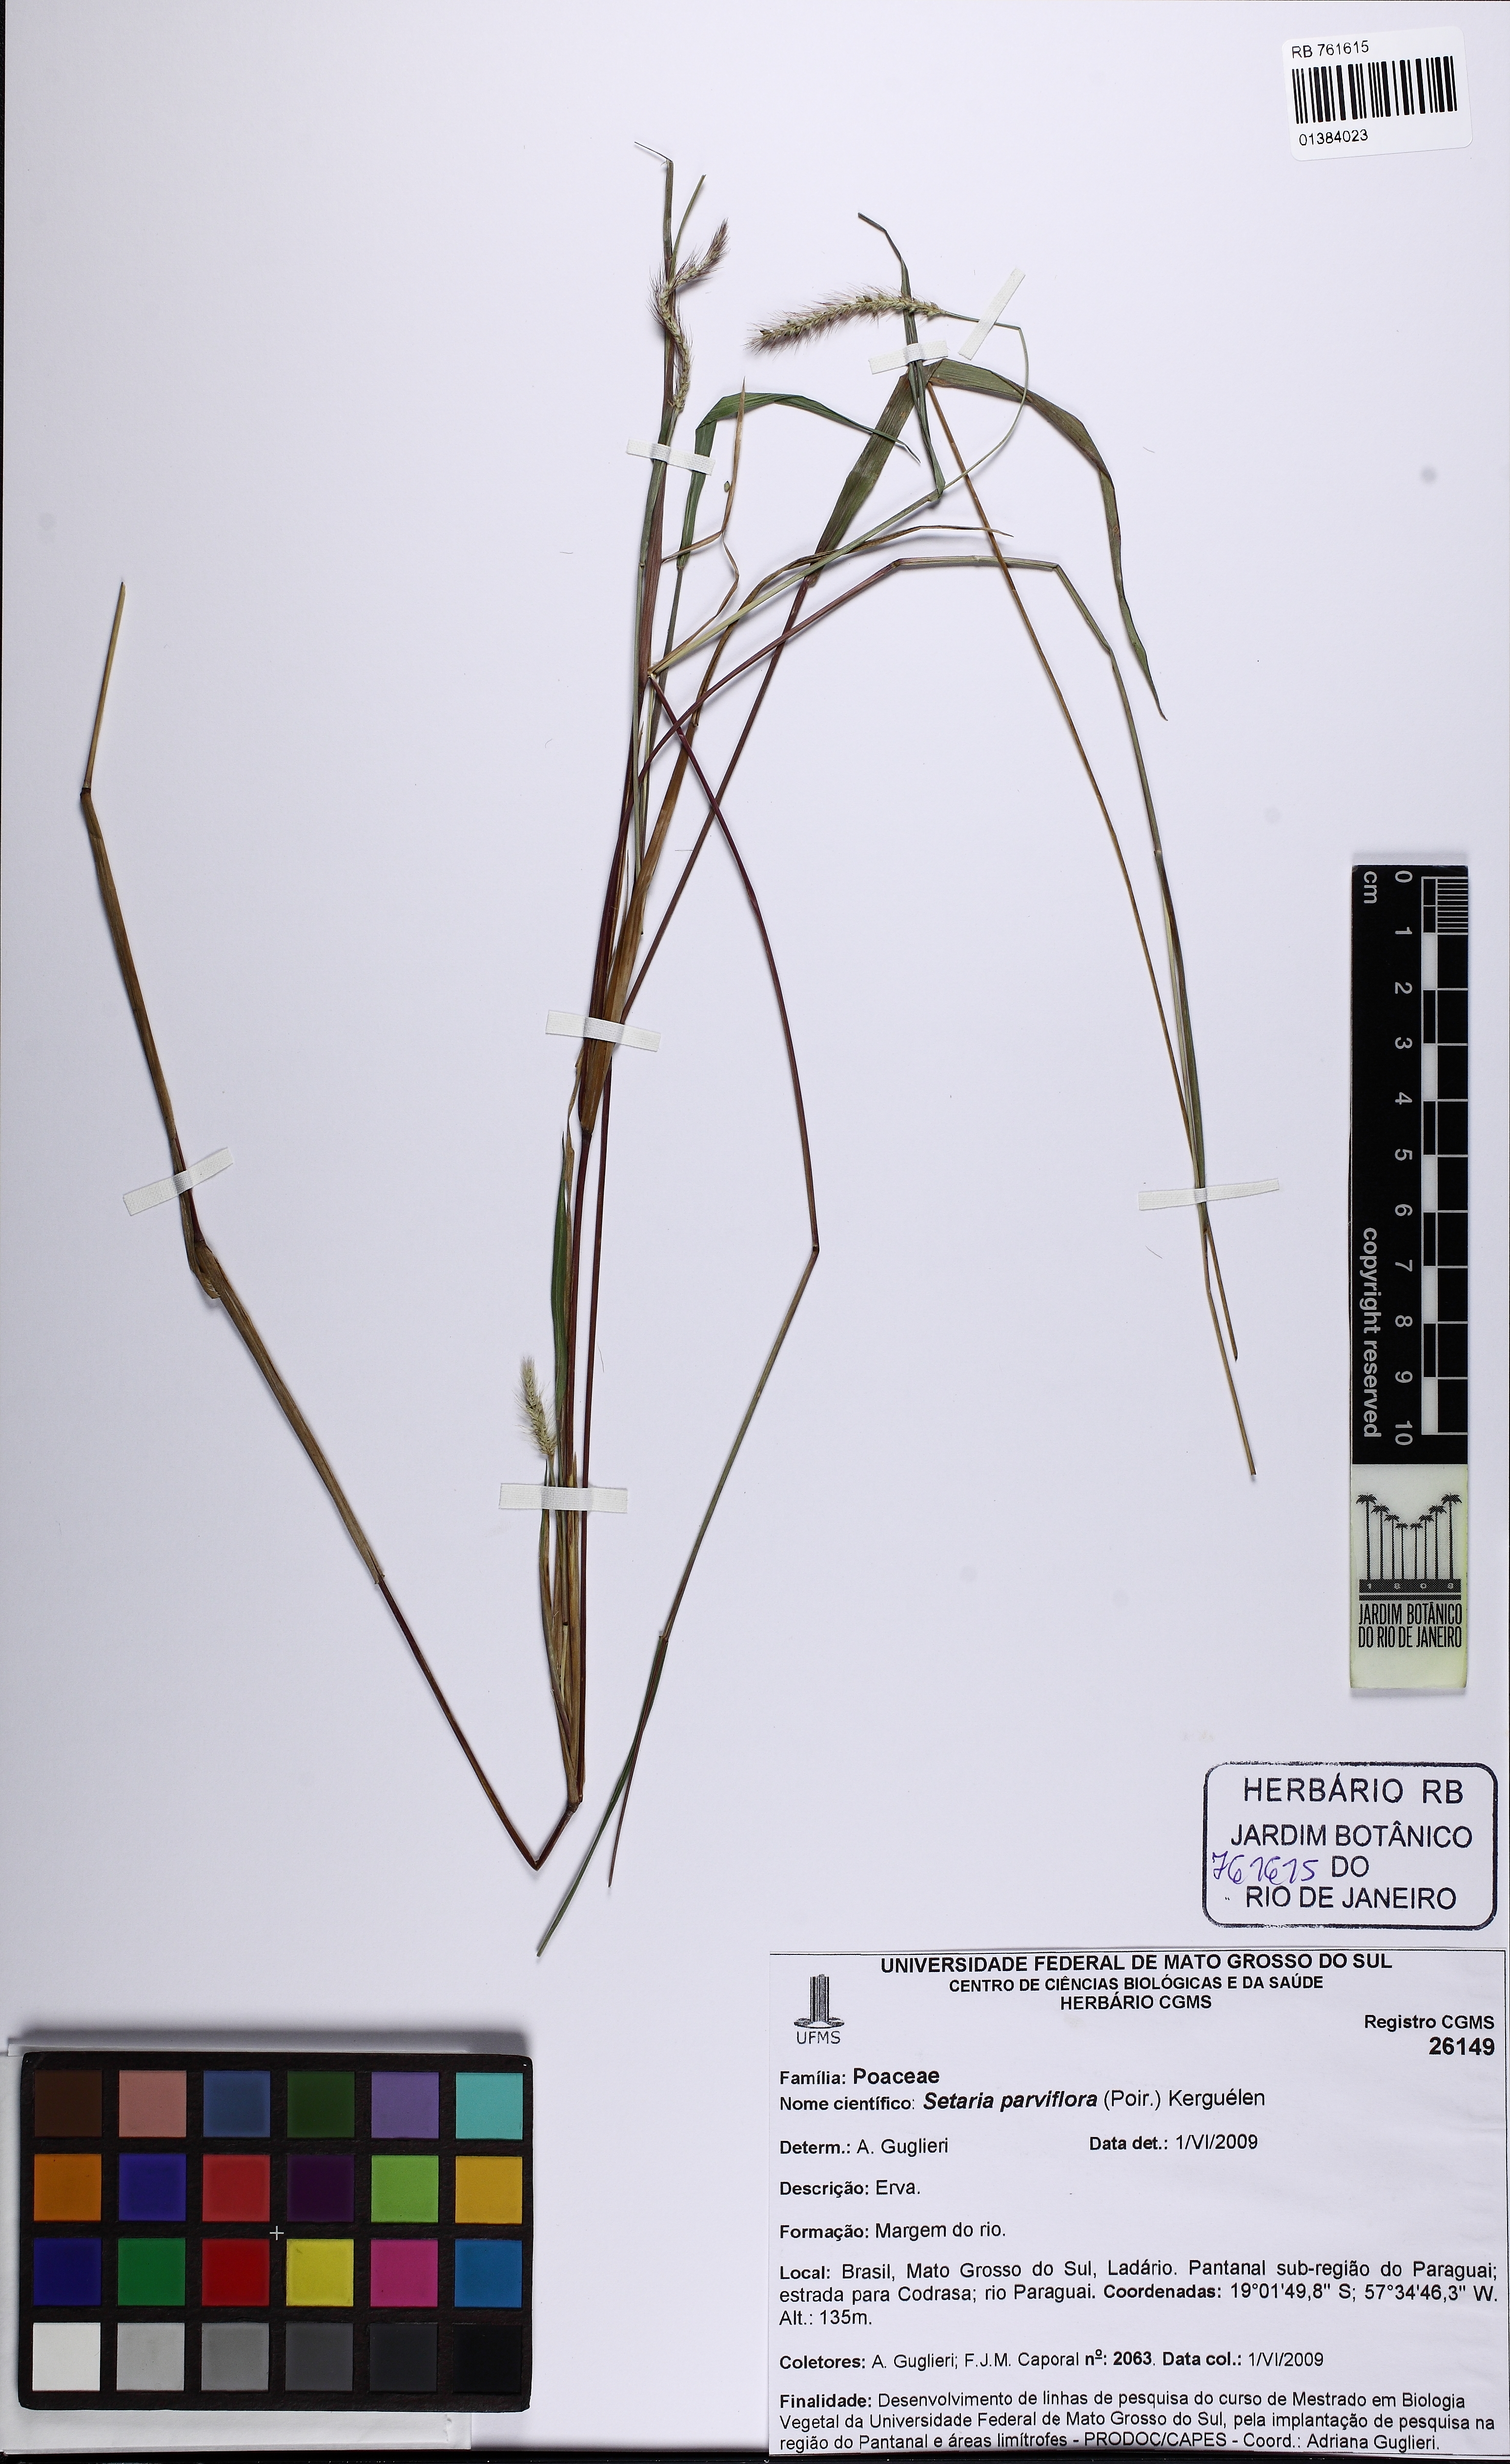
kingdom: Plantae
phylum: Tracheophyta
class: Liliopsida
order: Poales
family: Poaceae
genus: Setaria
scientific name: Setaria parviflora
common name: Knotroot bristle-grass
